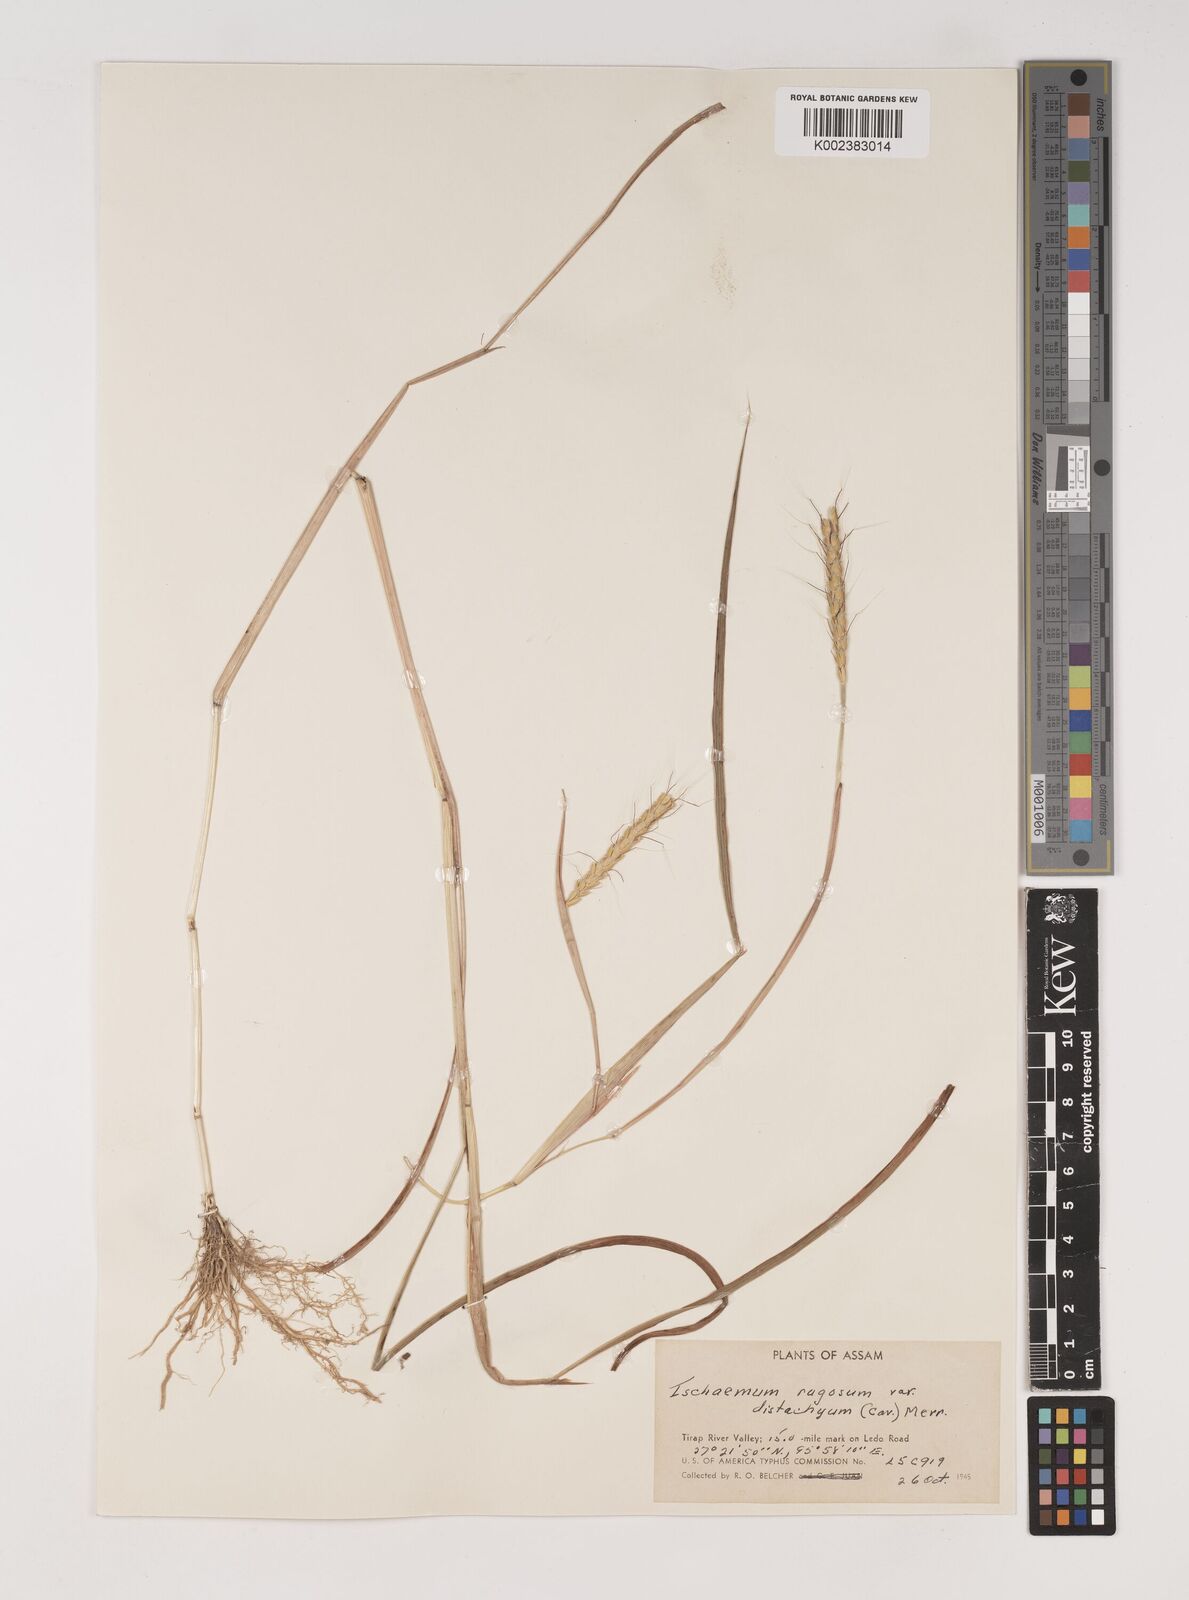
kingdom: Plantae
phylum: Tracheophyta
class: Liliopsida
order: Poales
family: Poaceae
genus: Ischaemum
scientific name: Ischaemum rugosum
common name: Saramatta grass
